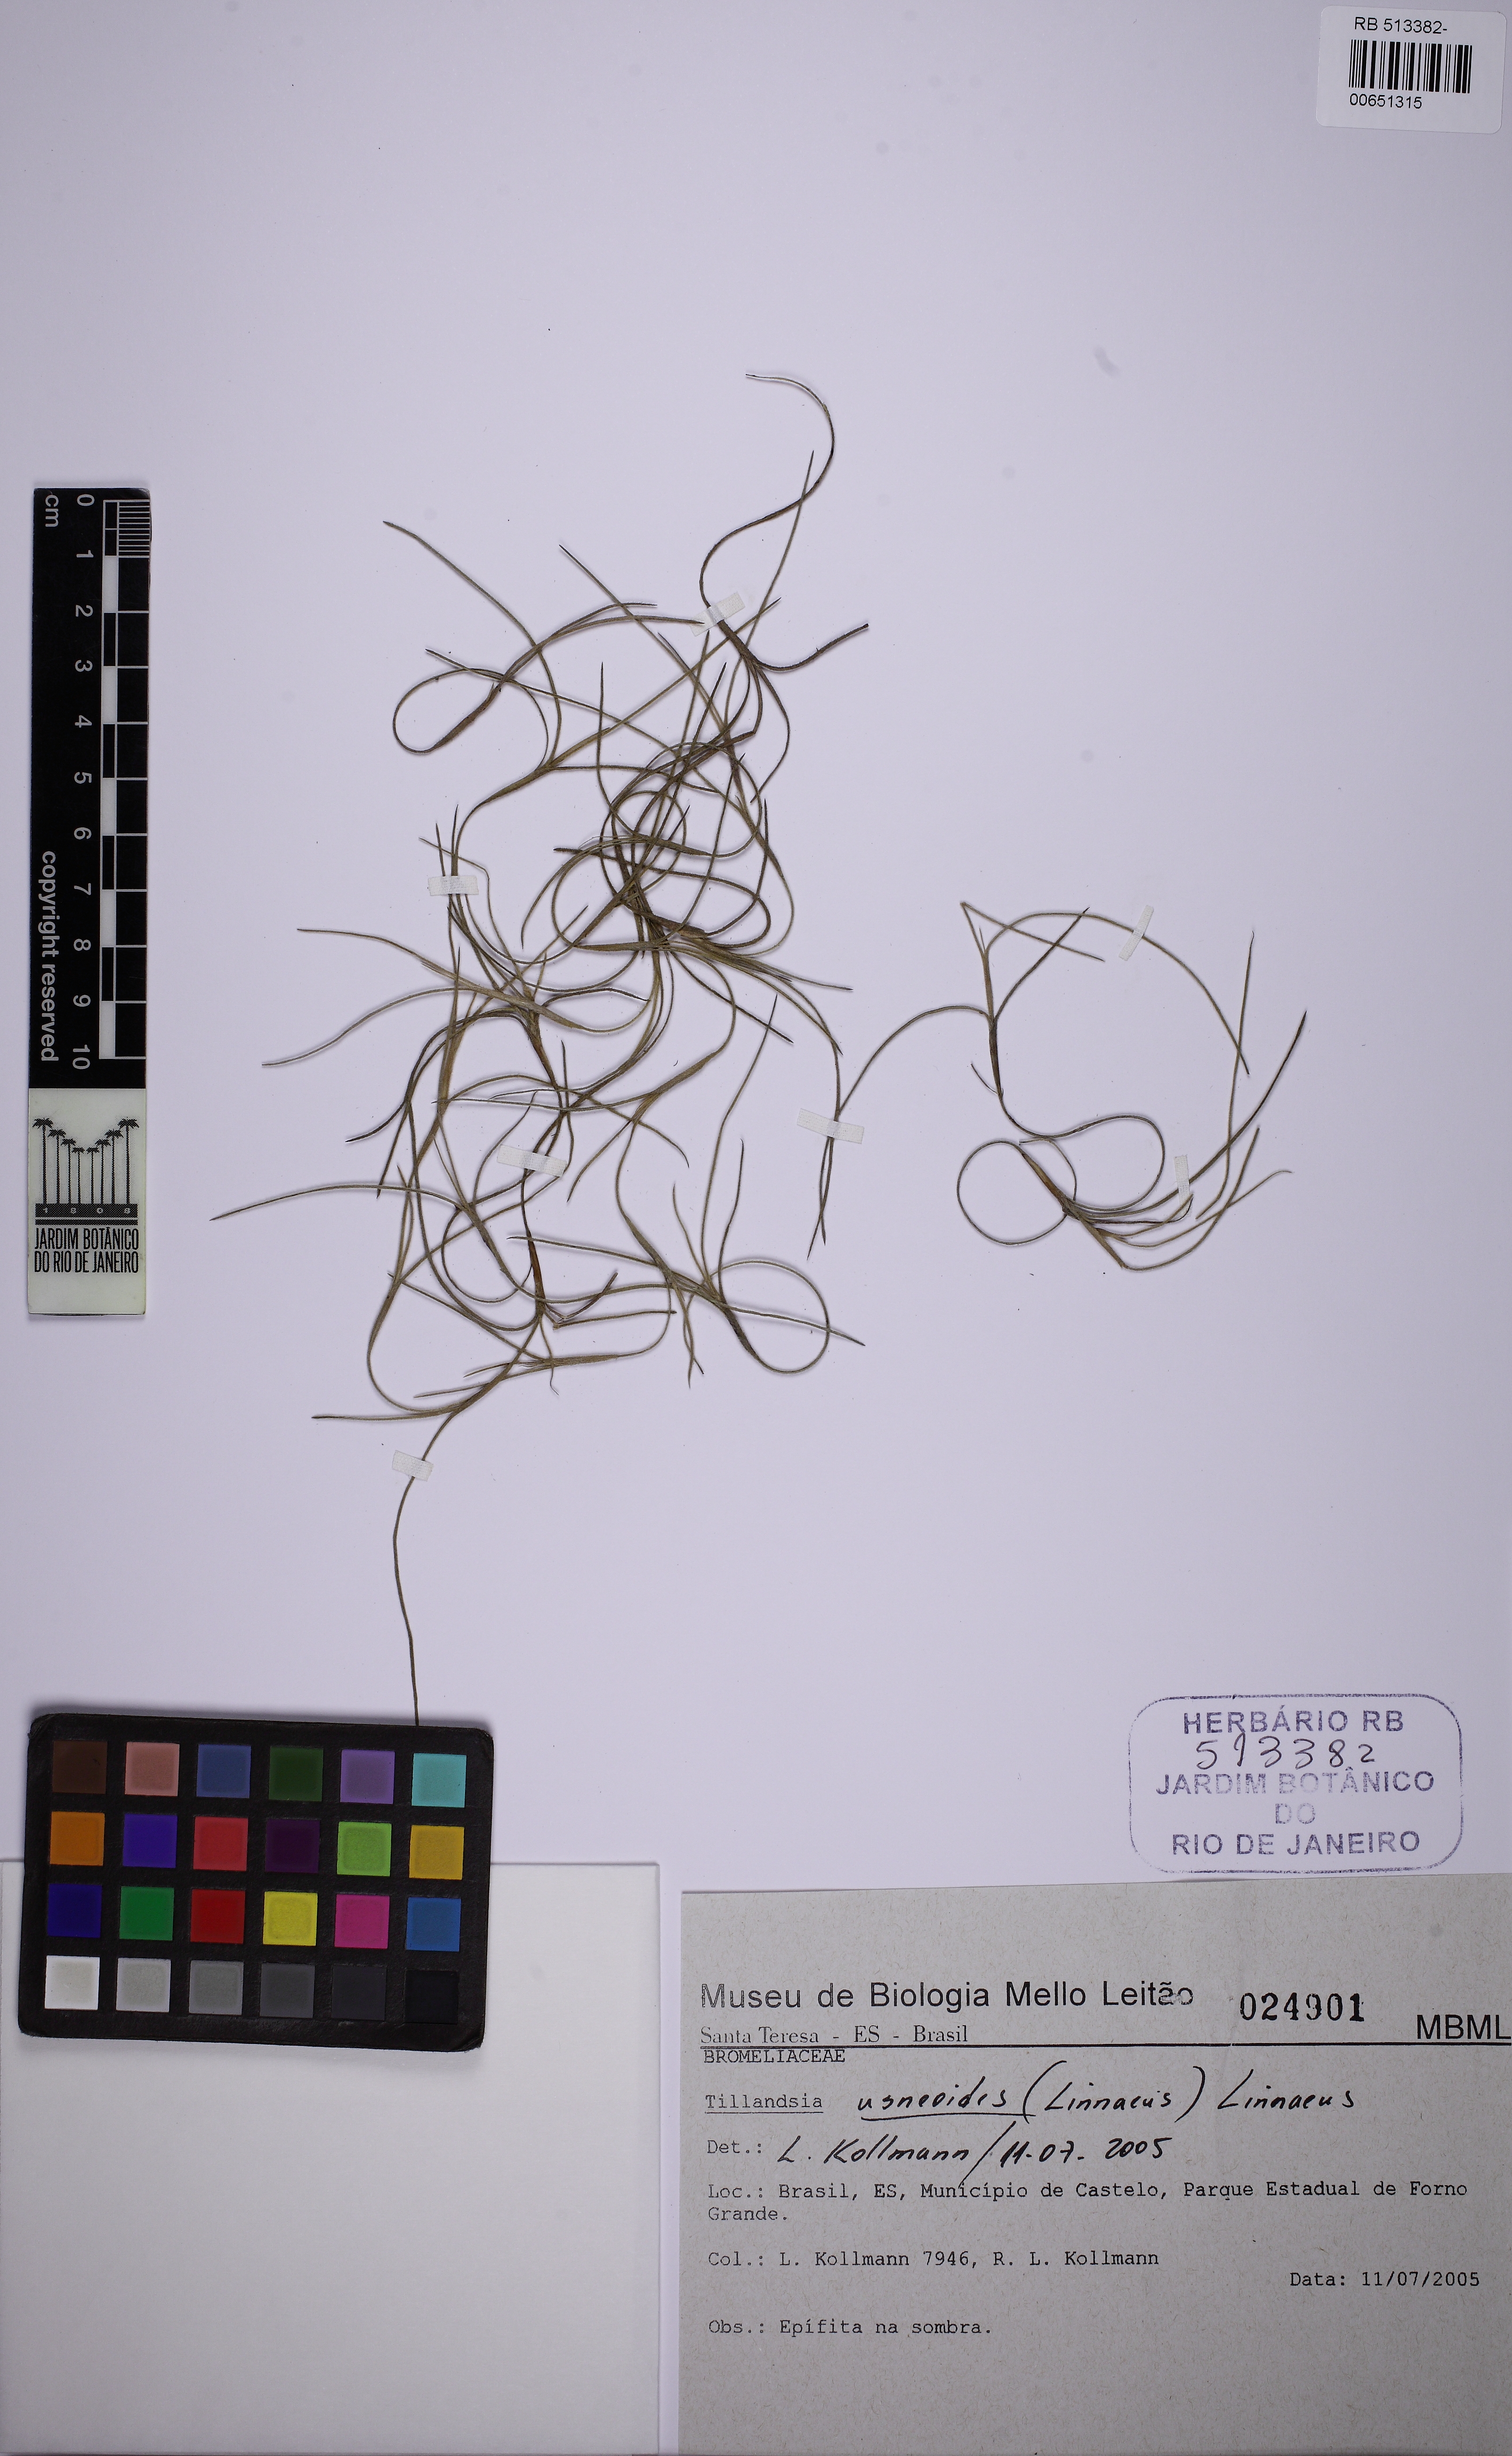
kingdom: Plantae
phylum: Tracheophyta
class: Liliopsida
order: Poales
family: Bromeliaceae
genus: Tillandsia
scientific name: Tillandsia usneoides
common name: Spanish moss
